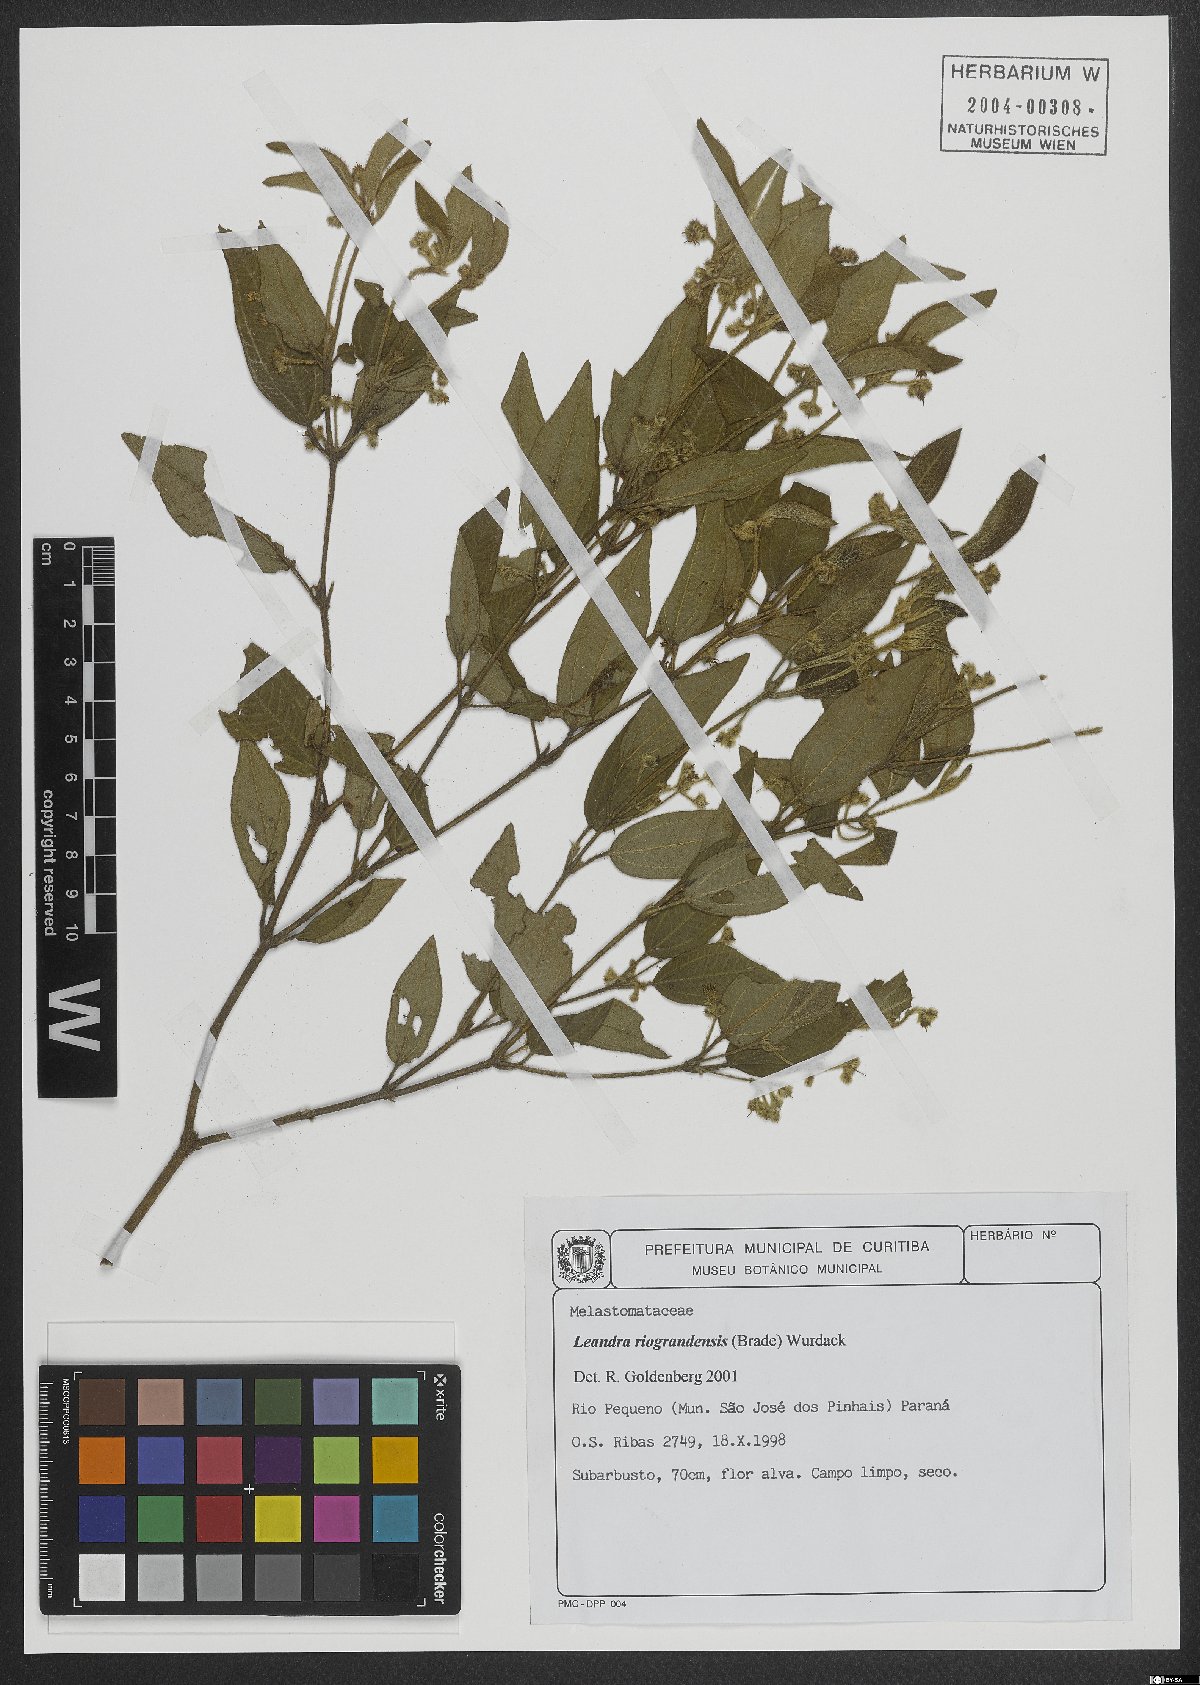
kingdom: Plantae
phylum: Tracheophyta
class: Magnoliopsida
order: Myrtales
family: Melastomataceae
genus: Miconia
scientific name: Miconia riograndensis
